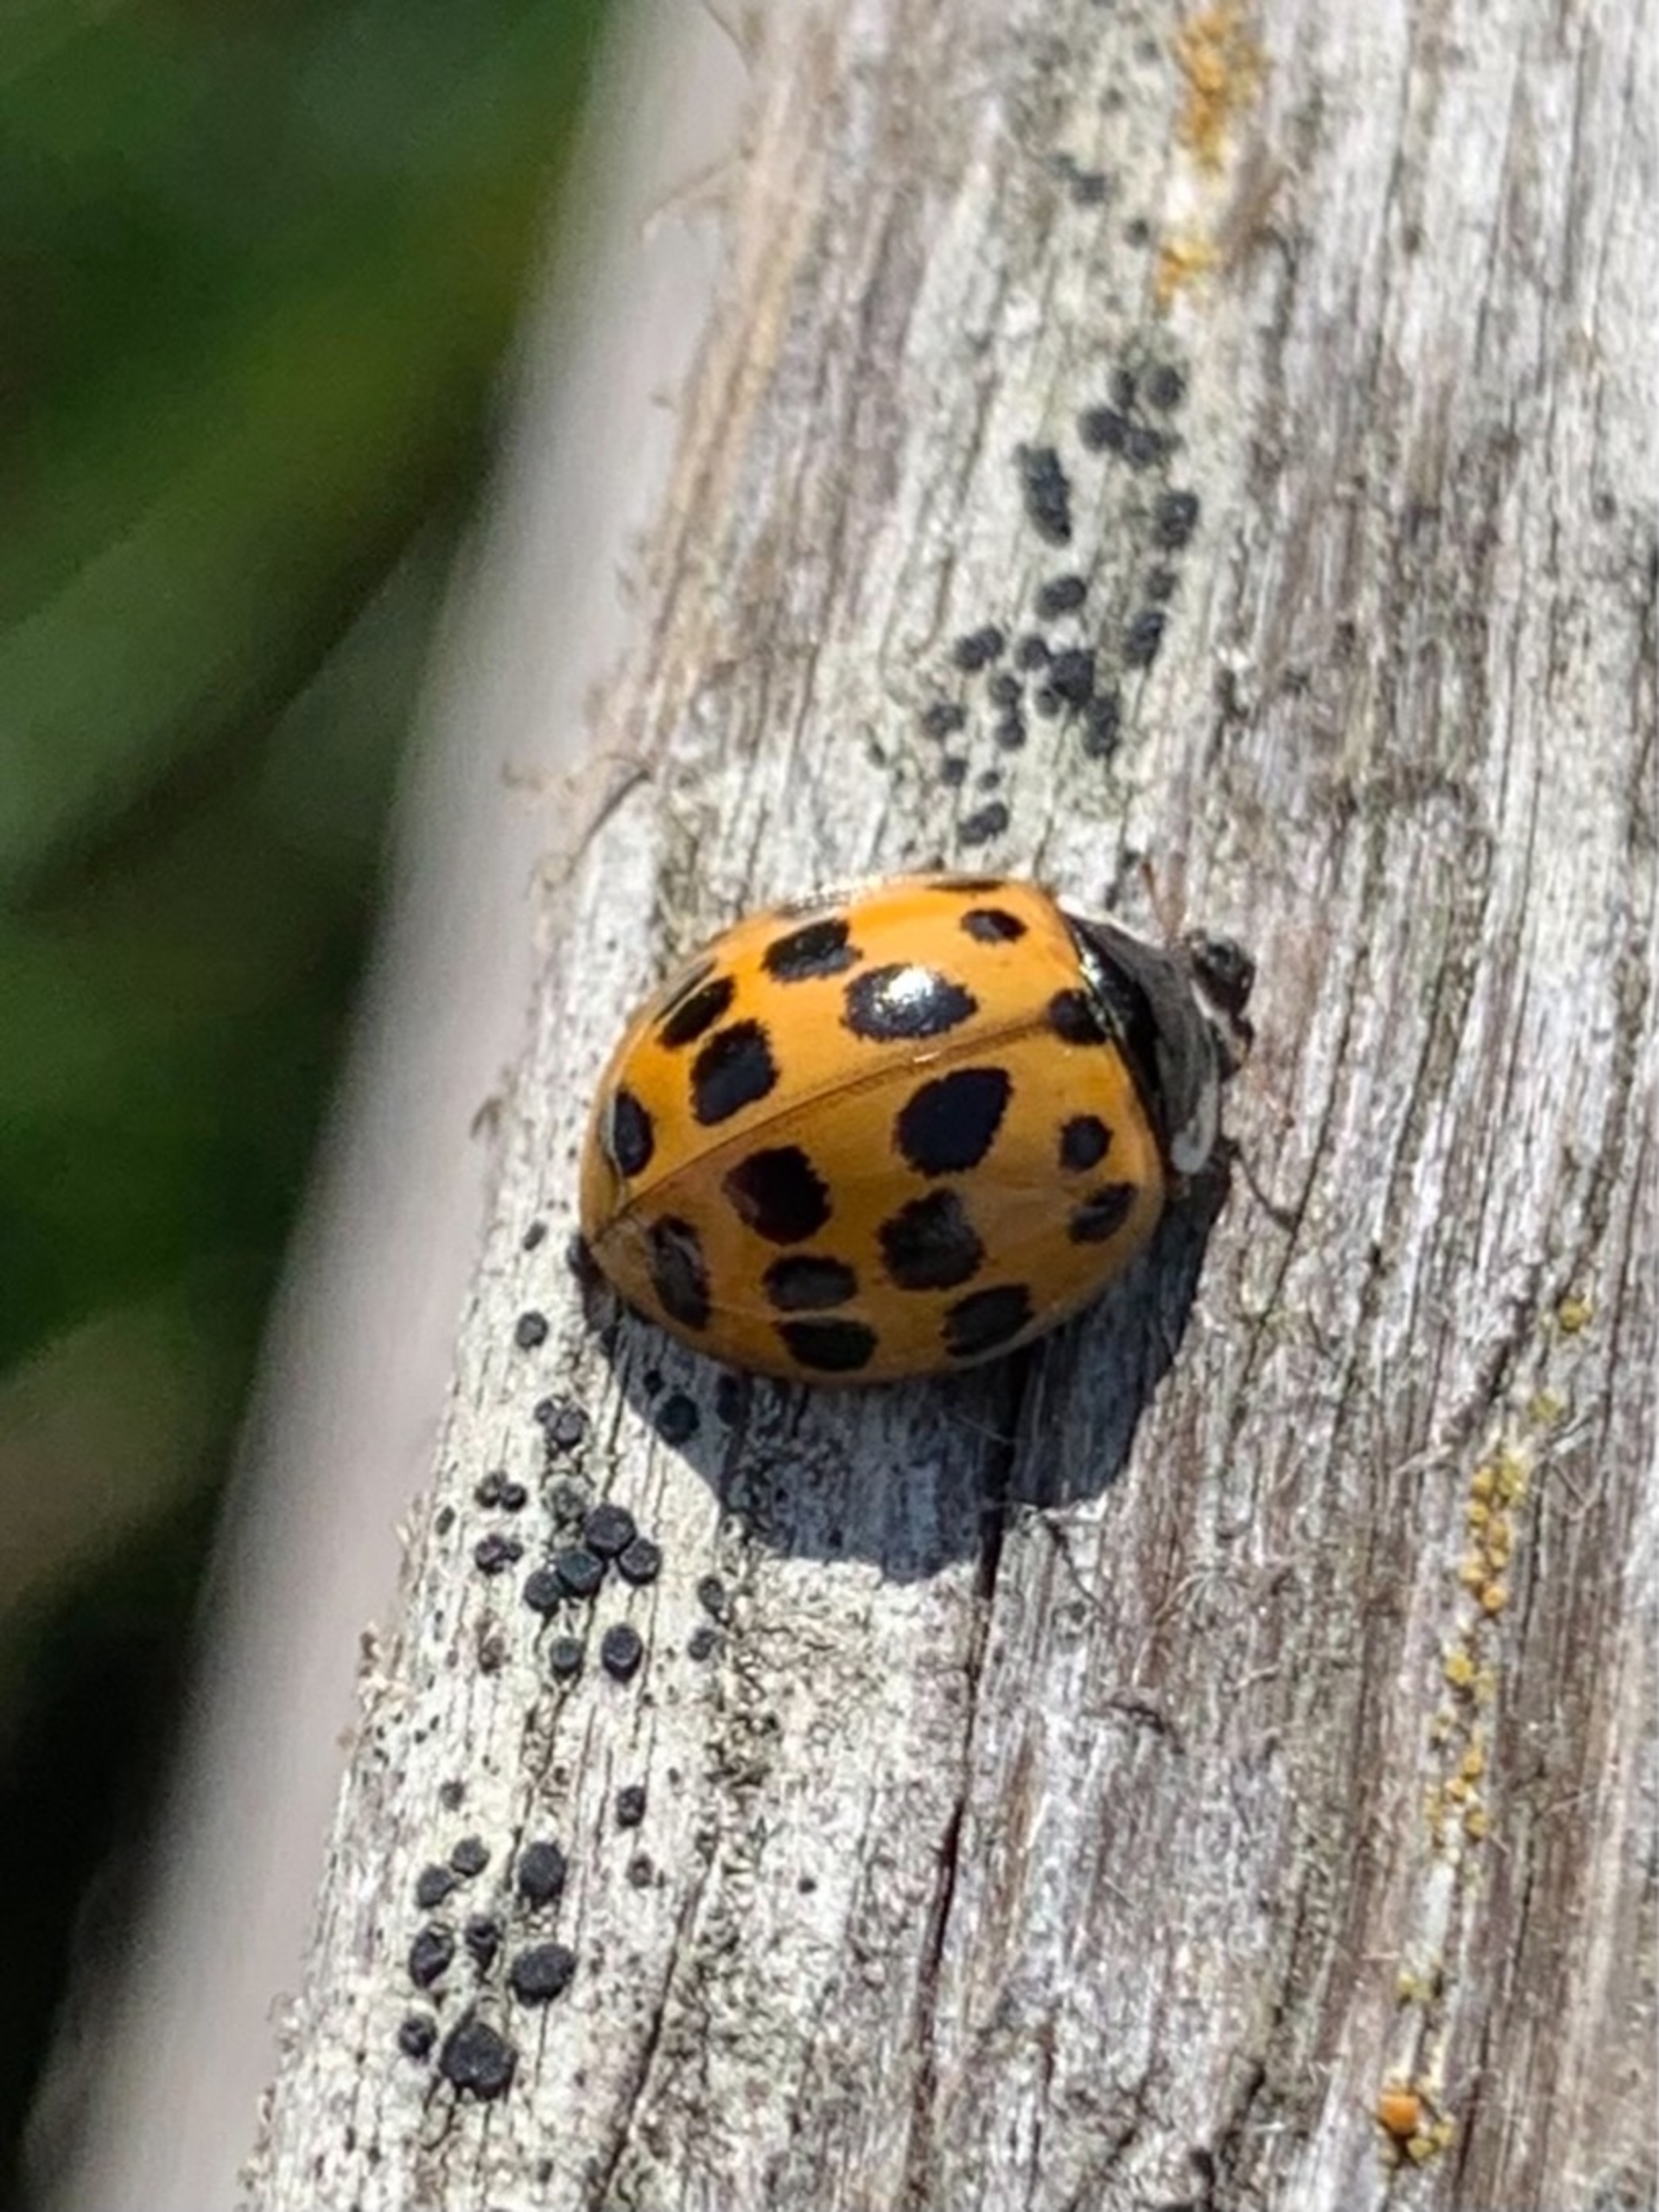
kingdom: Animalia
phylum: Arthropoda
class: Insecta
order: Coleoptera
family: Coccinellidae
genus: Harmonia
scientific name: Harmonia axyridis
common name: Harlekinmariehøne
